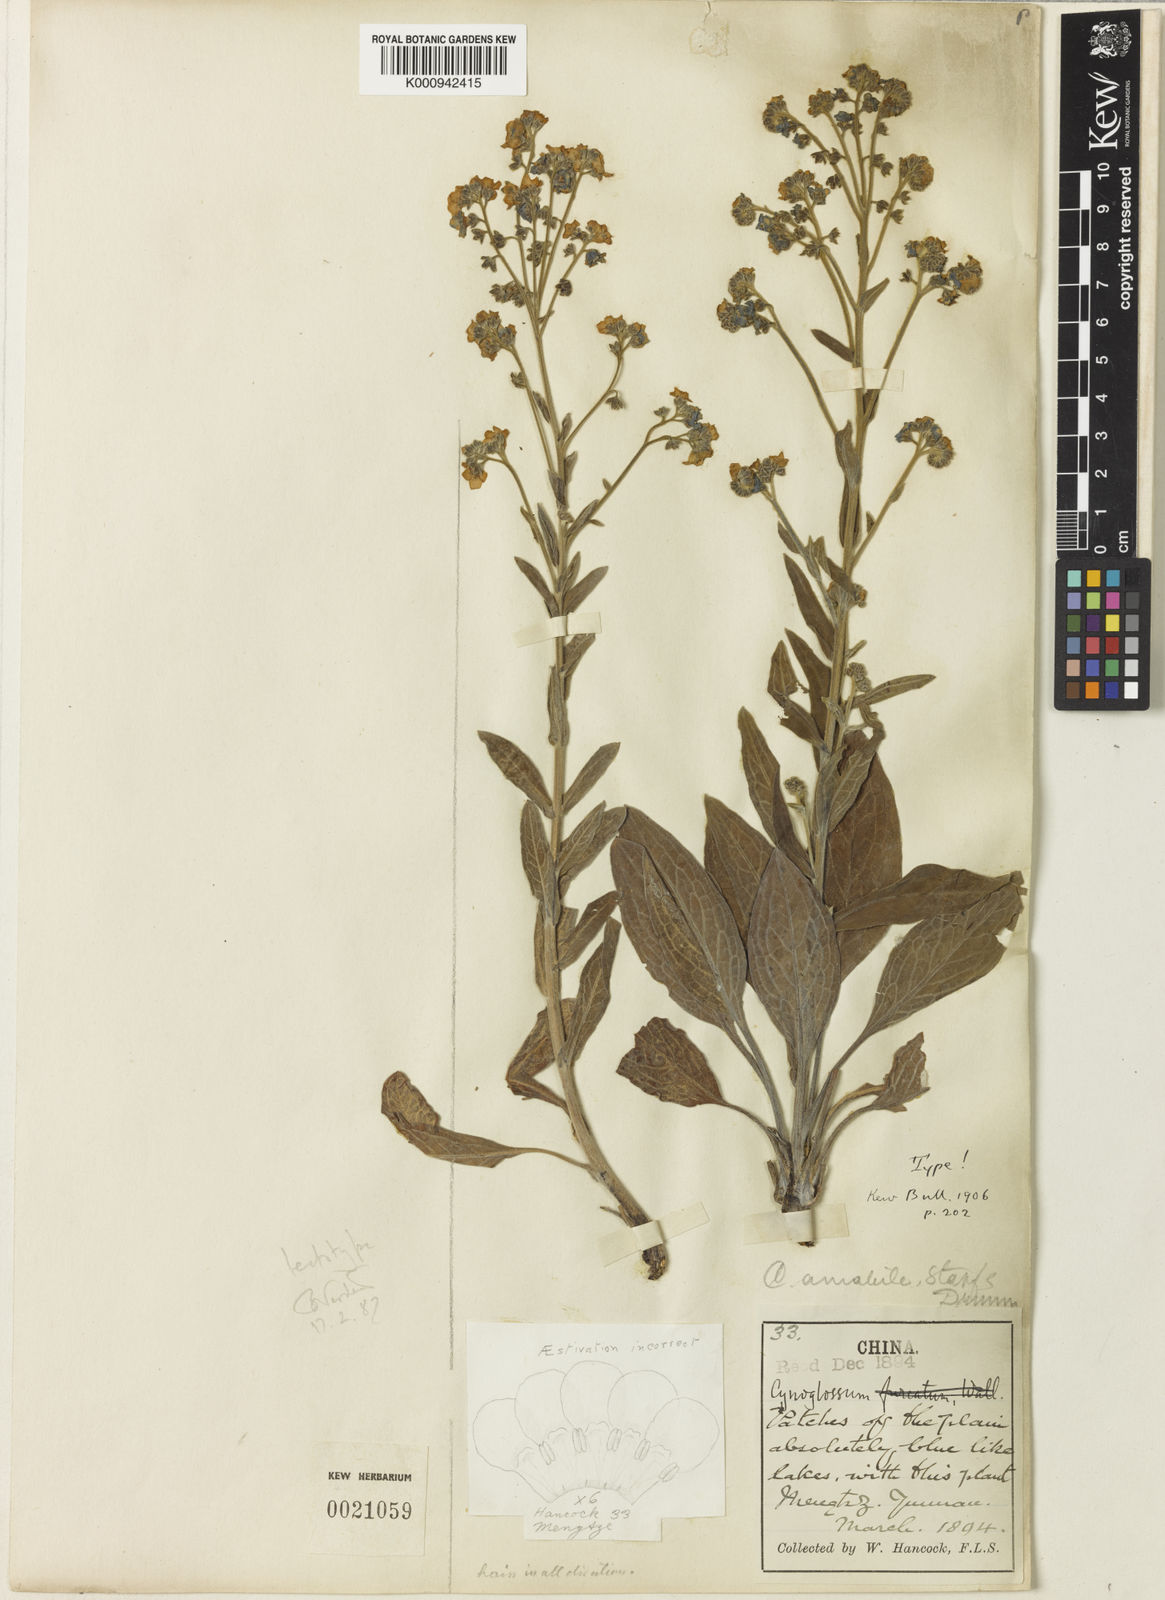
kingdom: Plantae
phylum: Tracheophyta
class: Magnoliopsida
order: Boraginales
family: Boraginaceae
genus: Cynoglossum
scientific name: Cynoglossum amabile
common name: Chinese hound's tongue
